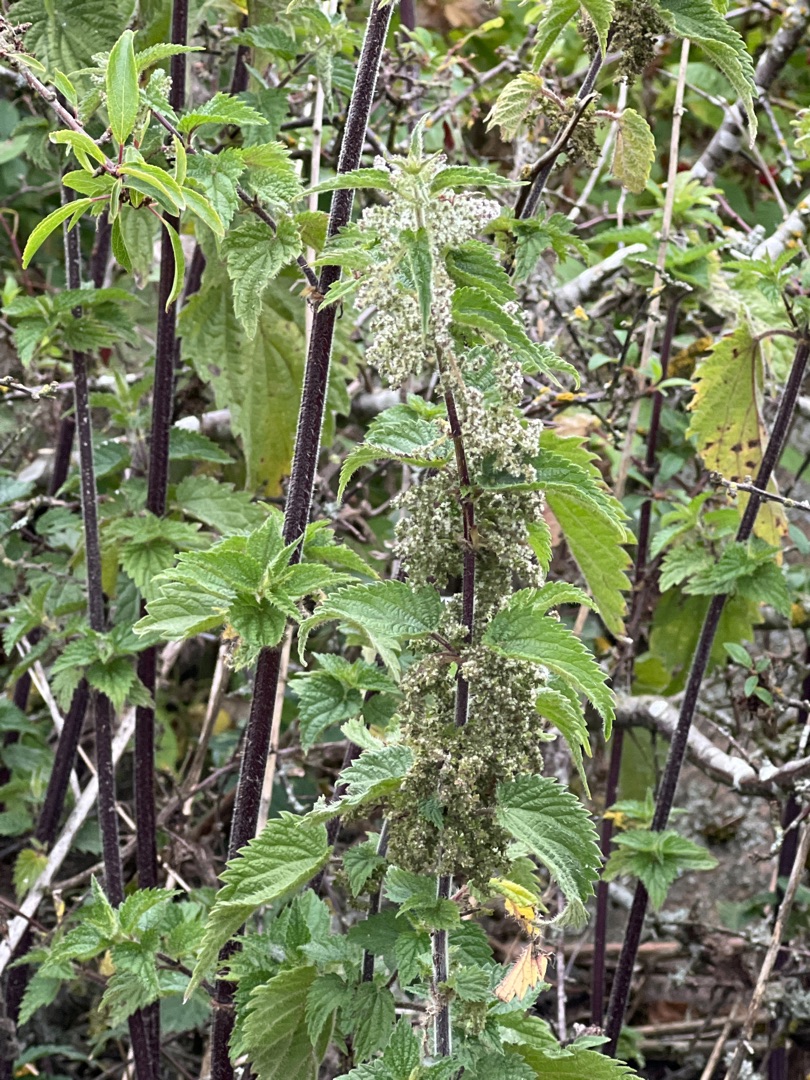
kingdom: Plantae
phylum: Tracheophyta
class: Magnoliopsida
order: Rosales
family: Urticaceae
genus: Urtica
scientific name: Urtica dioica
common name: Stor nælde
